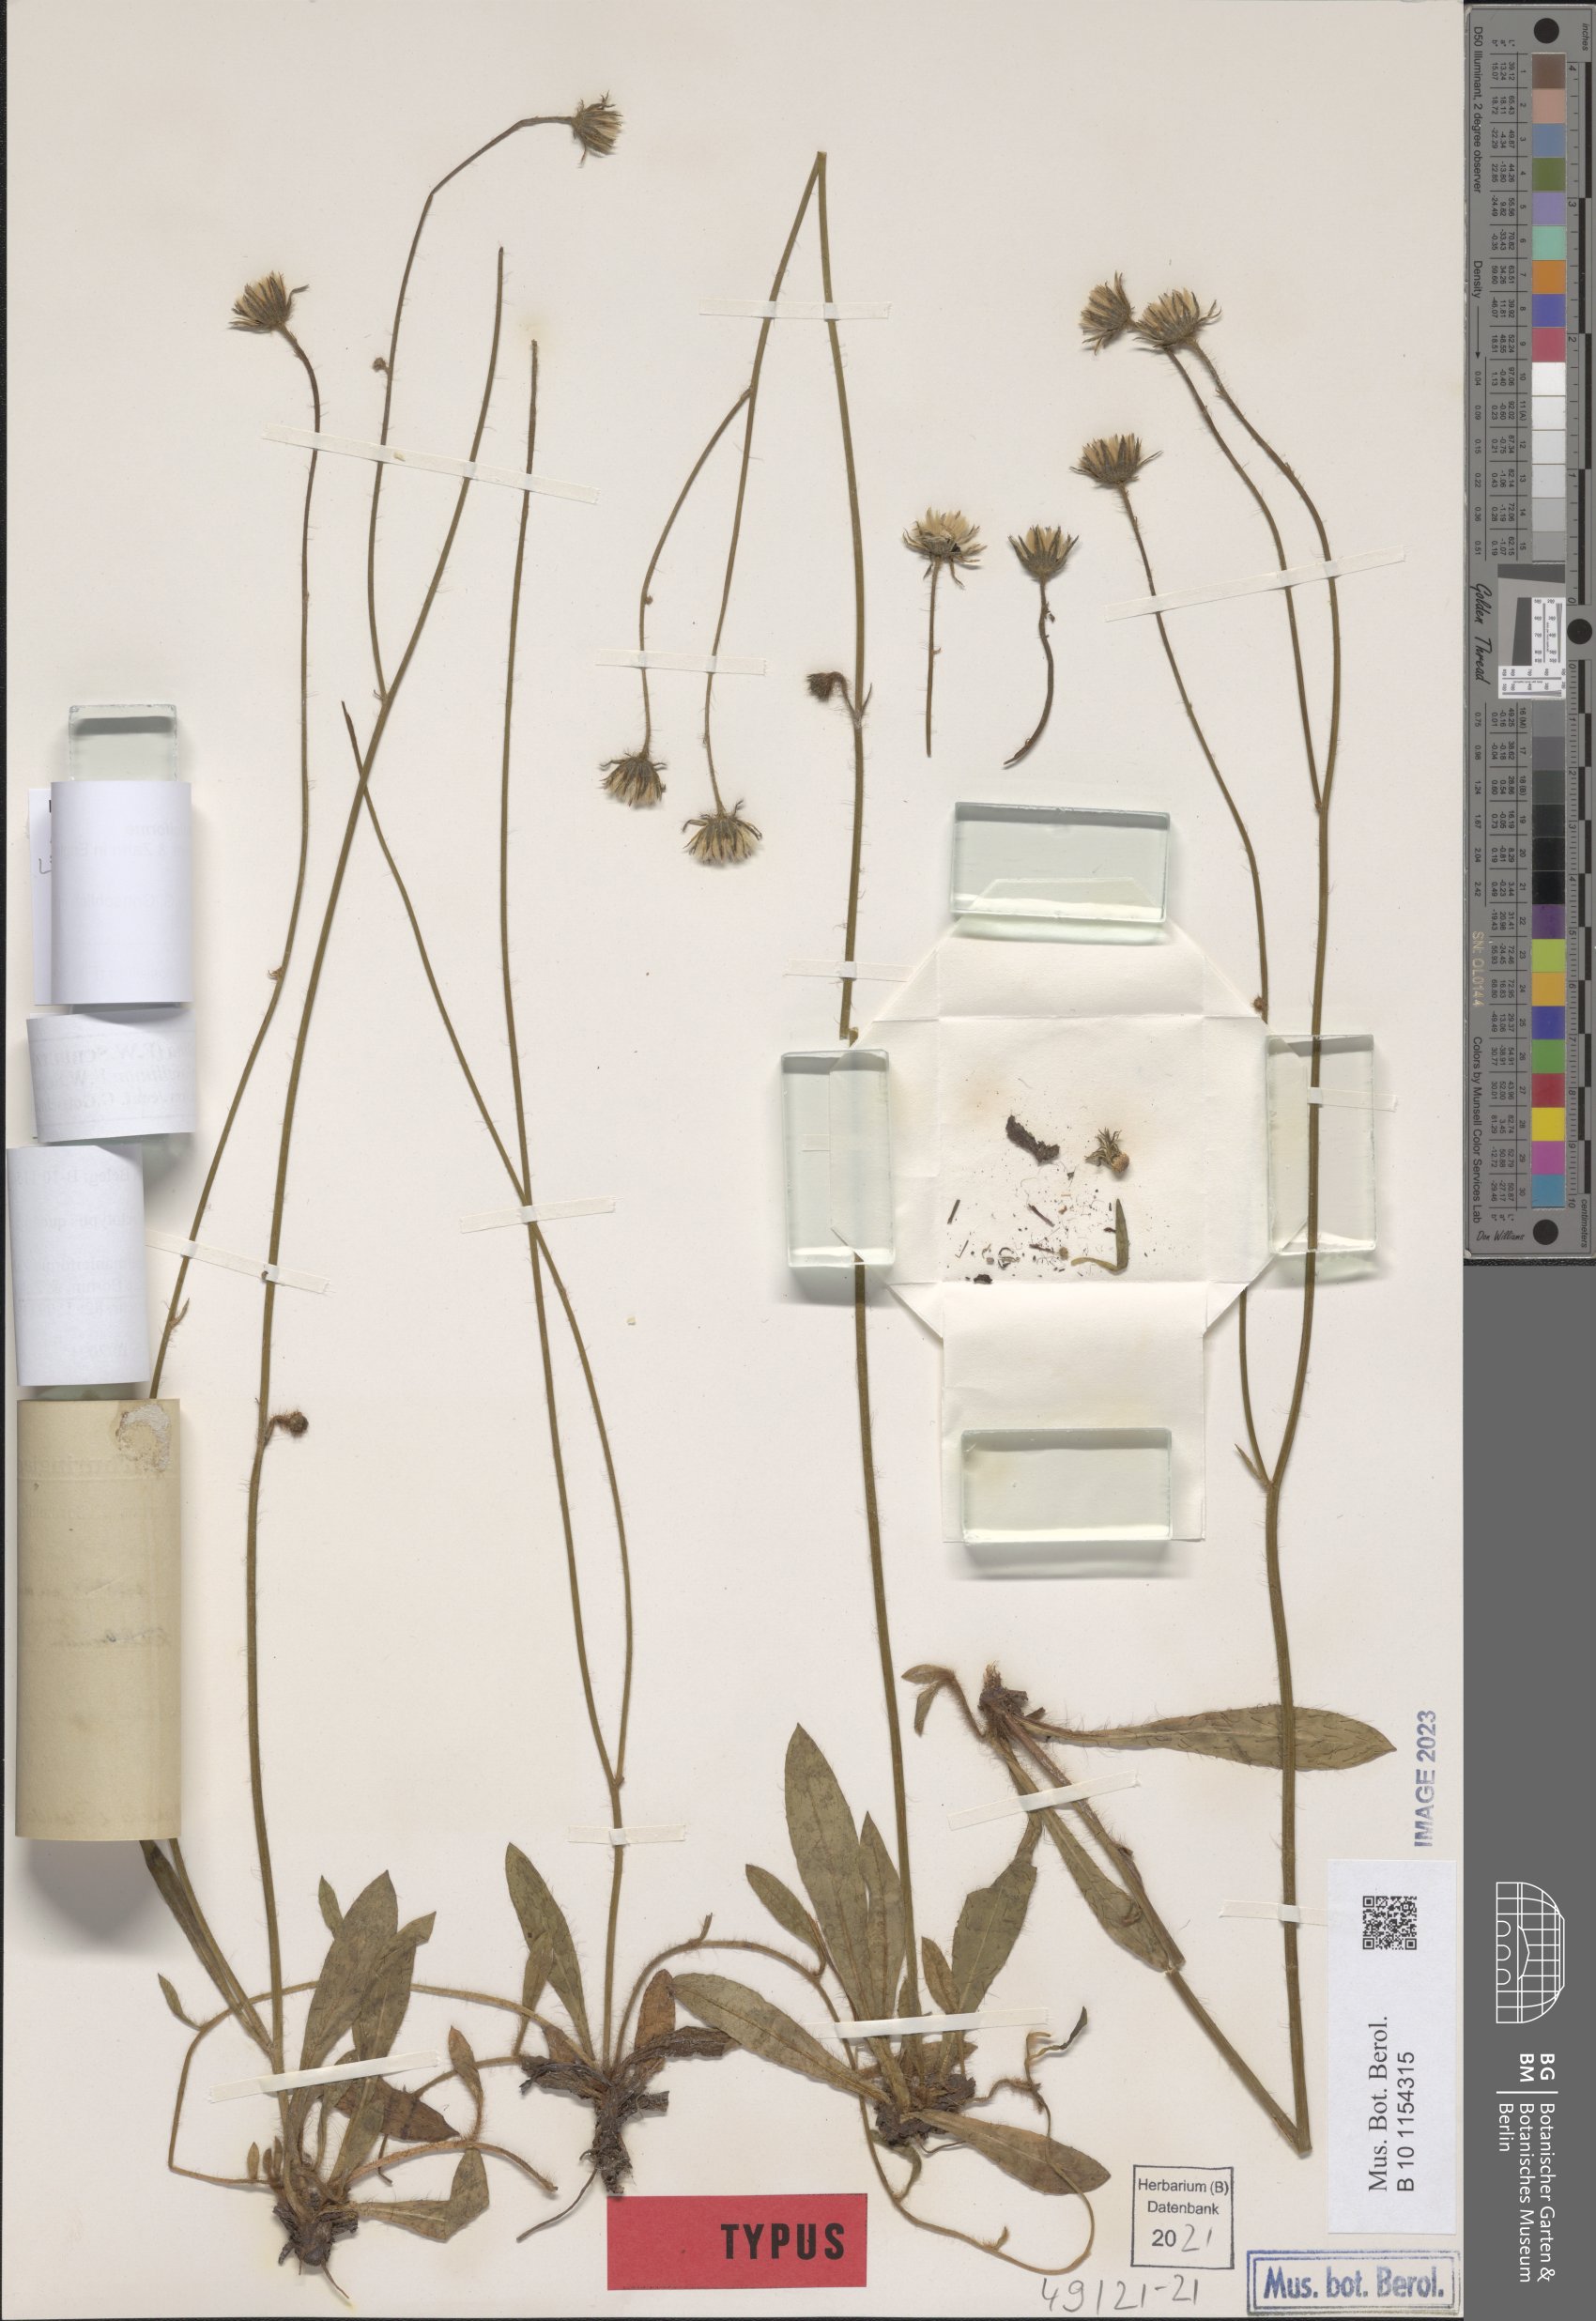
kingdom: Plantae
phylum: Tracheophyta
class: Magnoliopsida
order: Asterales
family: Asteraceae
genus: Pilosella
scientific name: Pilosella fallacina
